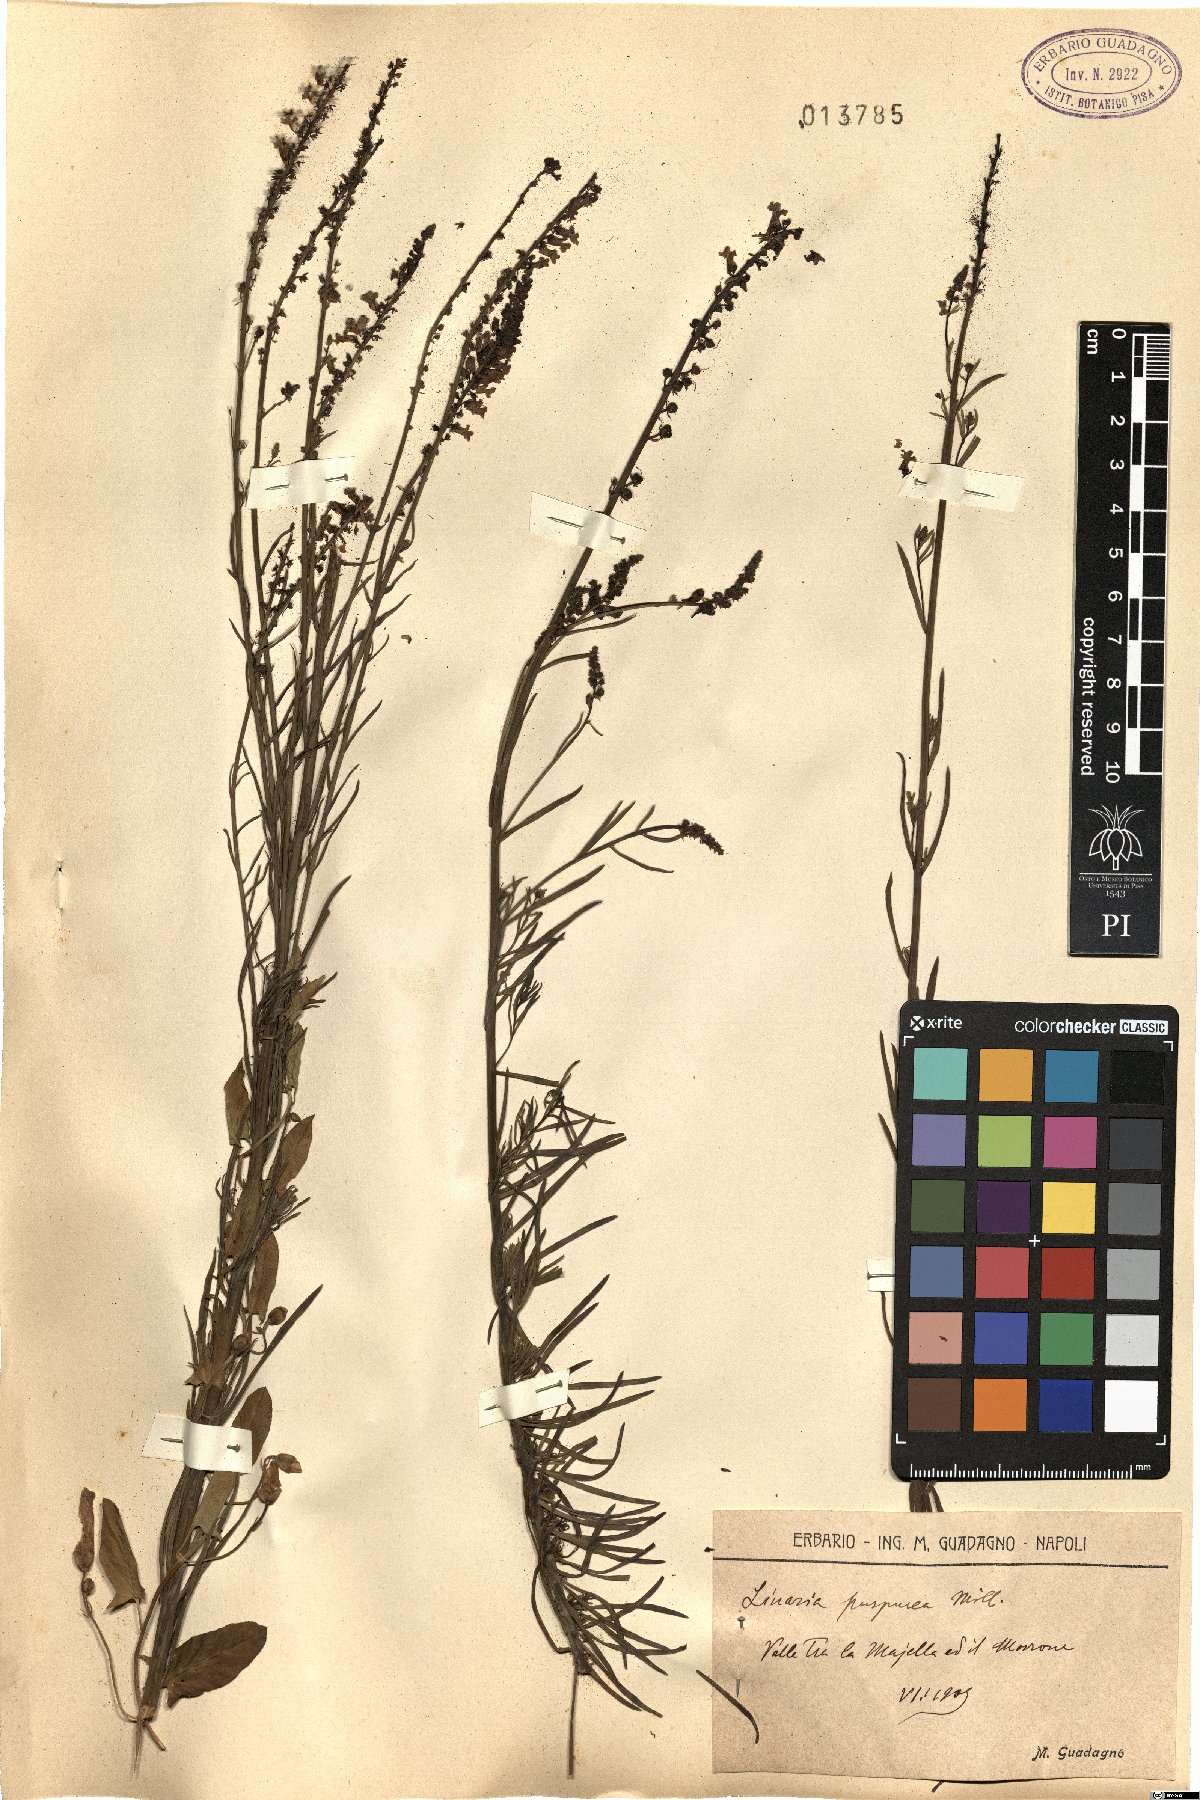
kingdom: Plantae
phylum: Tracheophyta
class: Magnoliopsida
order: Lamiales
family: Plantaginaceae
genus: Linaria
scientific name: Linaria purpurea
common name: Purple toadflax
